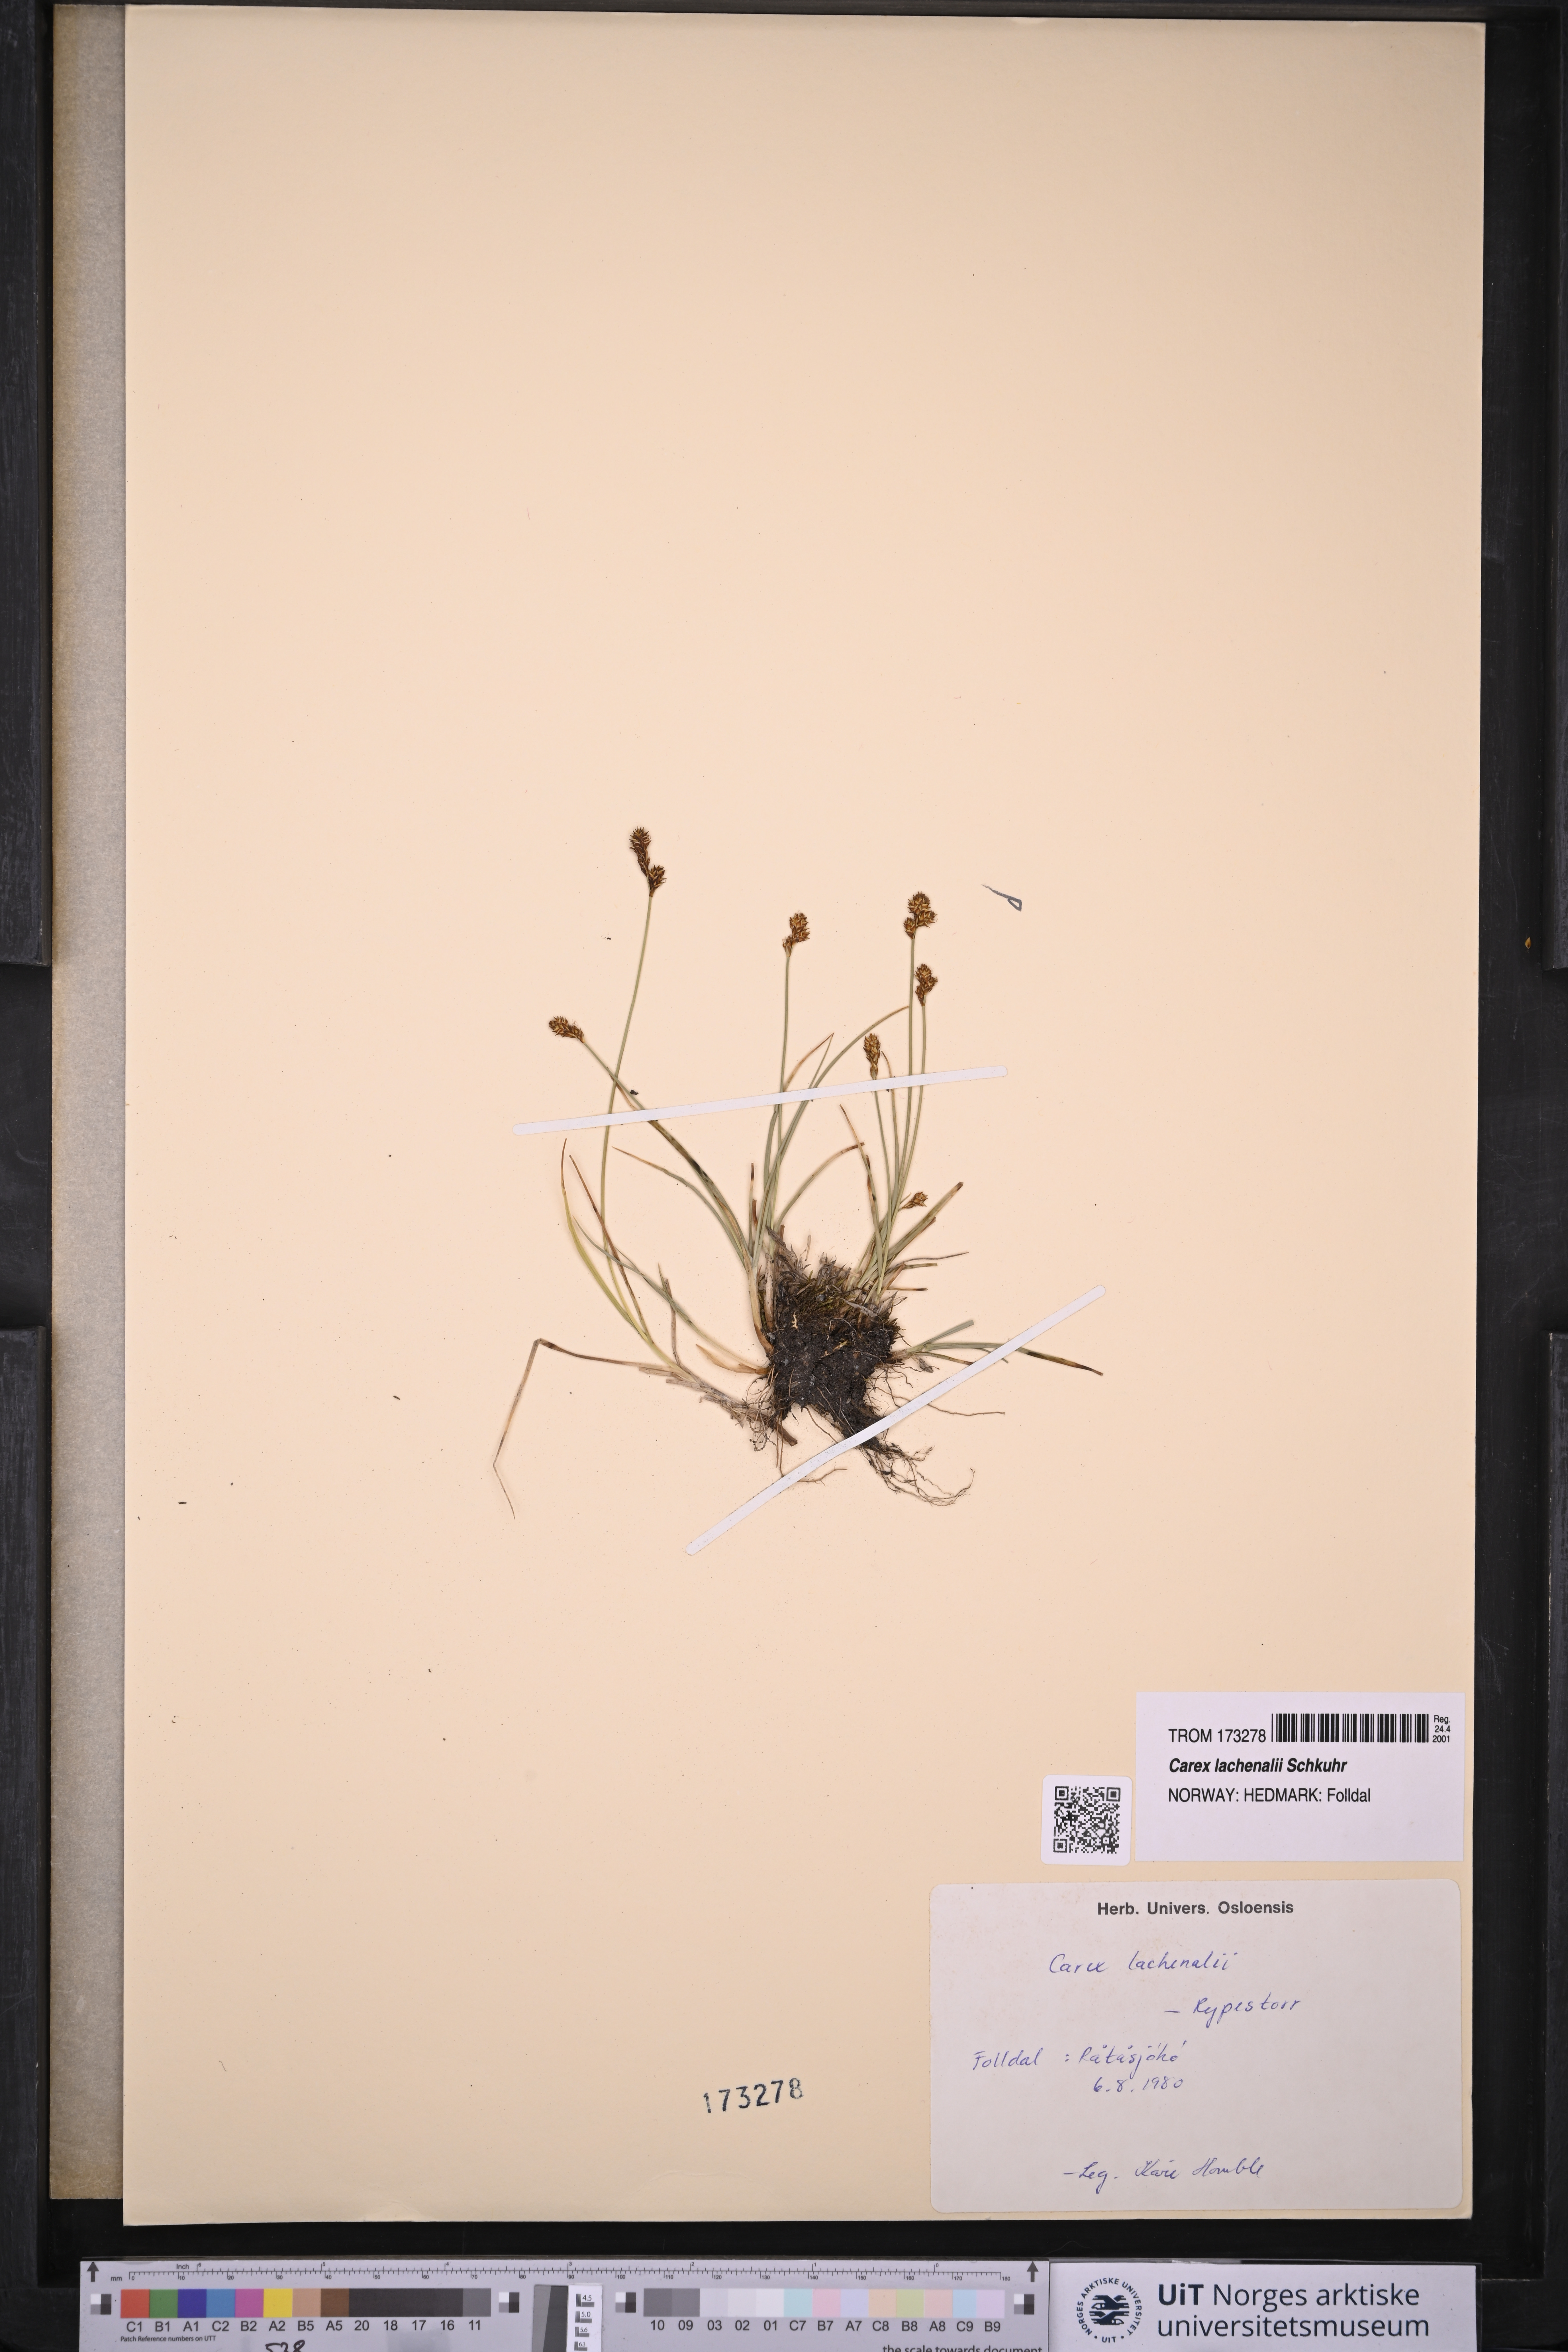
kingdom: Plantae
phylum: Tracheophyta
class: Liliopsida
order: Poales
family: Cyperaceae
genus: Carex
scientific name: Carex lachenalii
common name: Hare's-foot sedge
